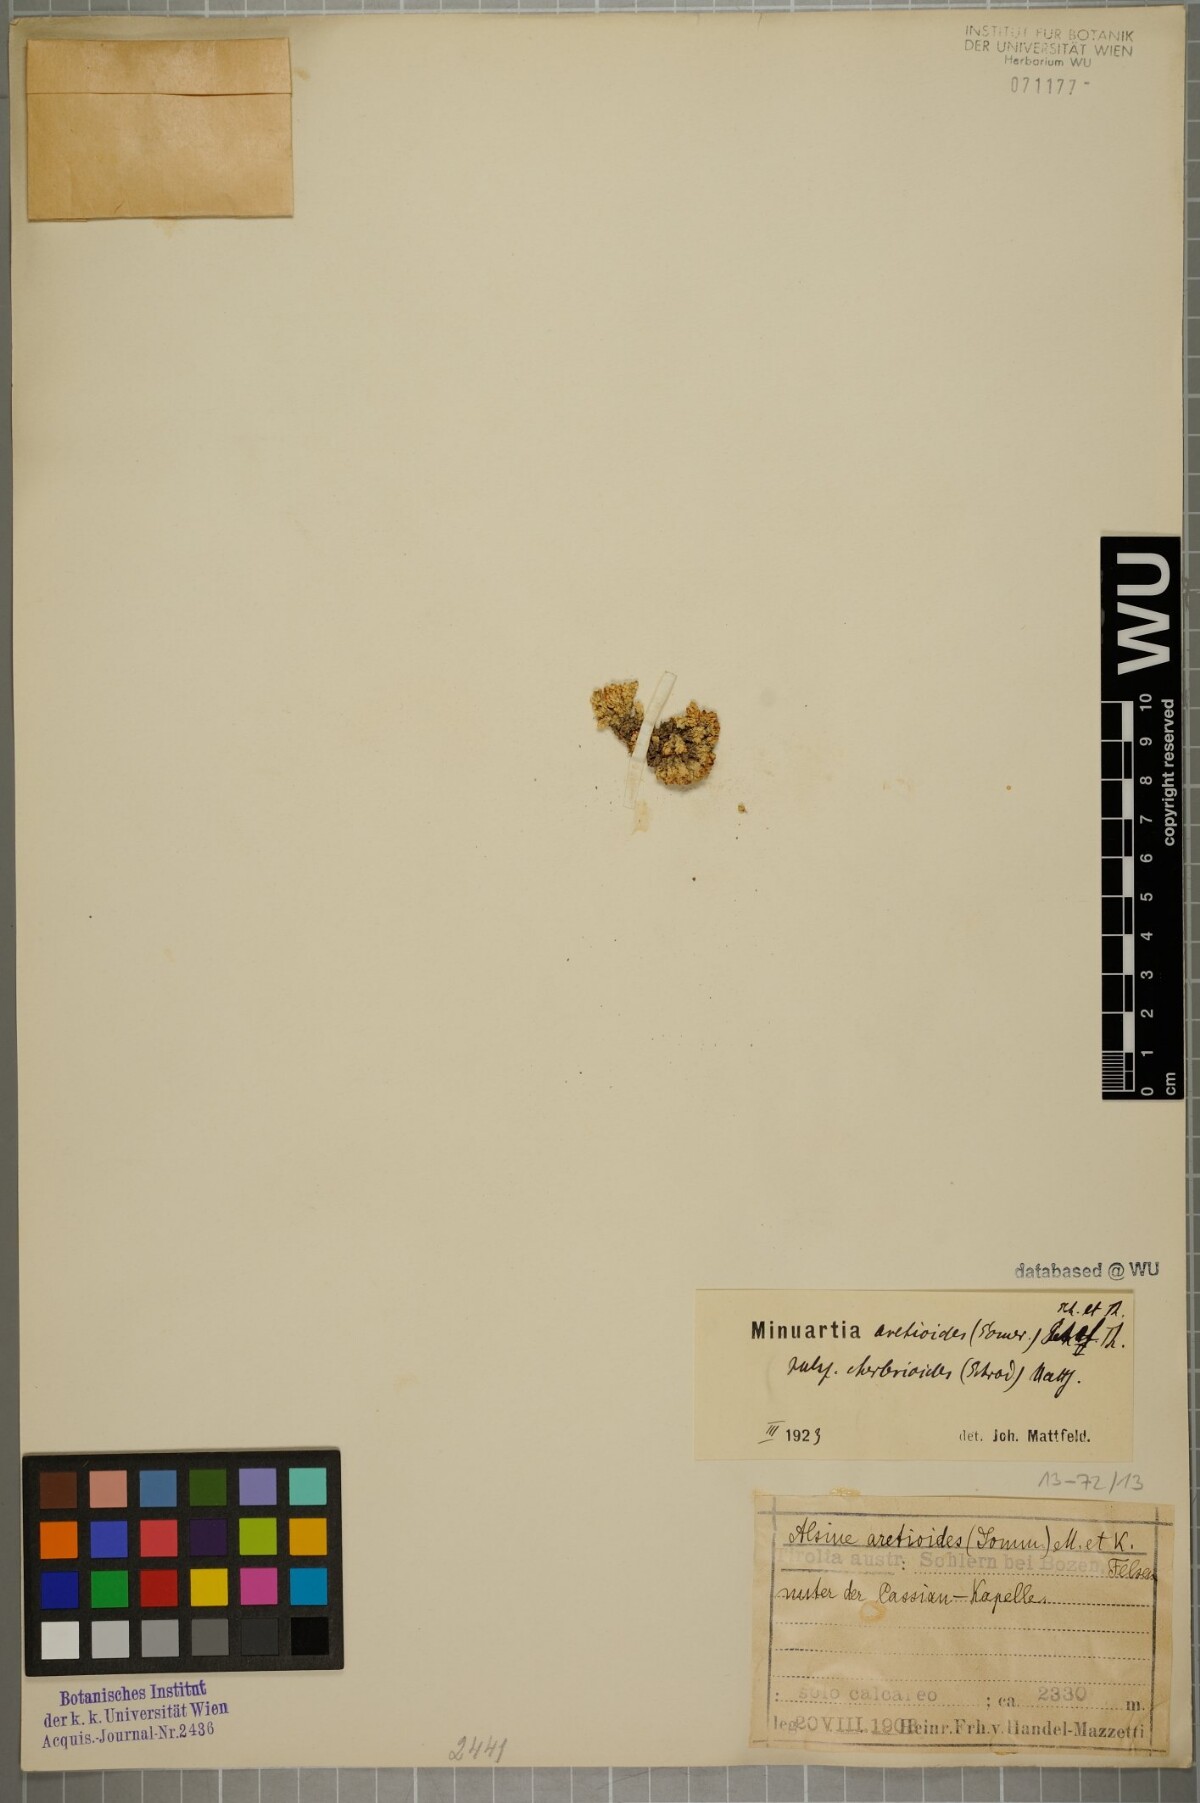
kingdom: Plantae
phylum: Tracheophyta
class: Magnoliopsida
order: Caryophyllales
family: Caryophyllaceae
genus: Facchinia
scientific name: Facchinia cherlerioides
